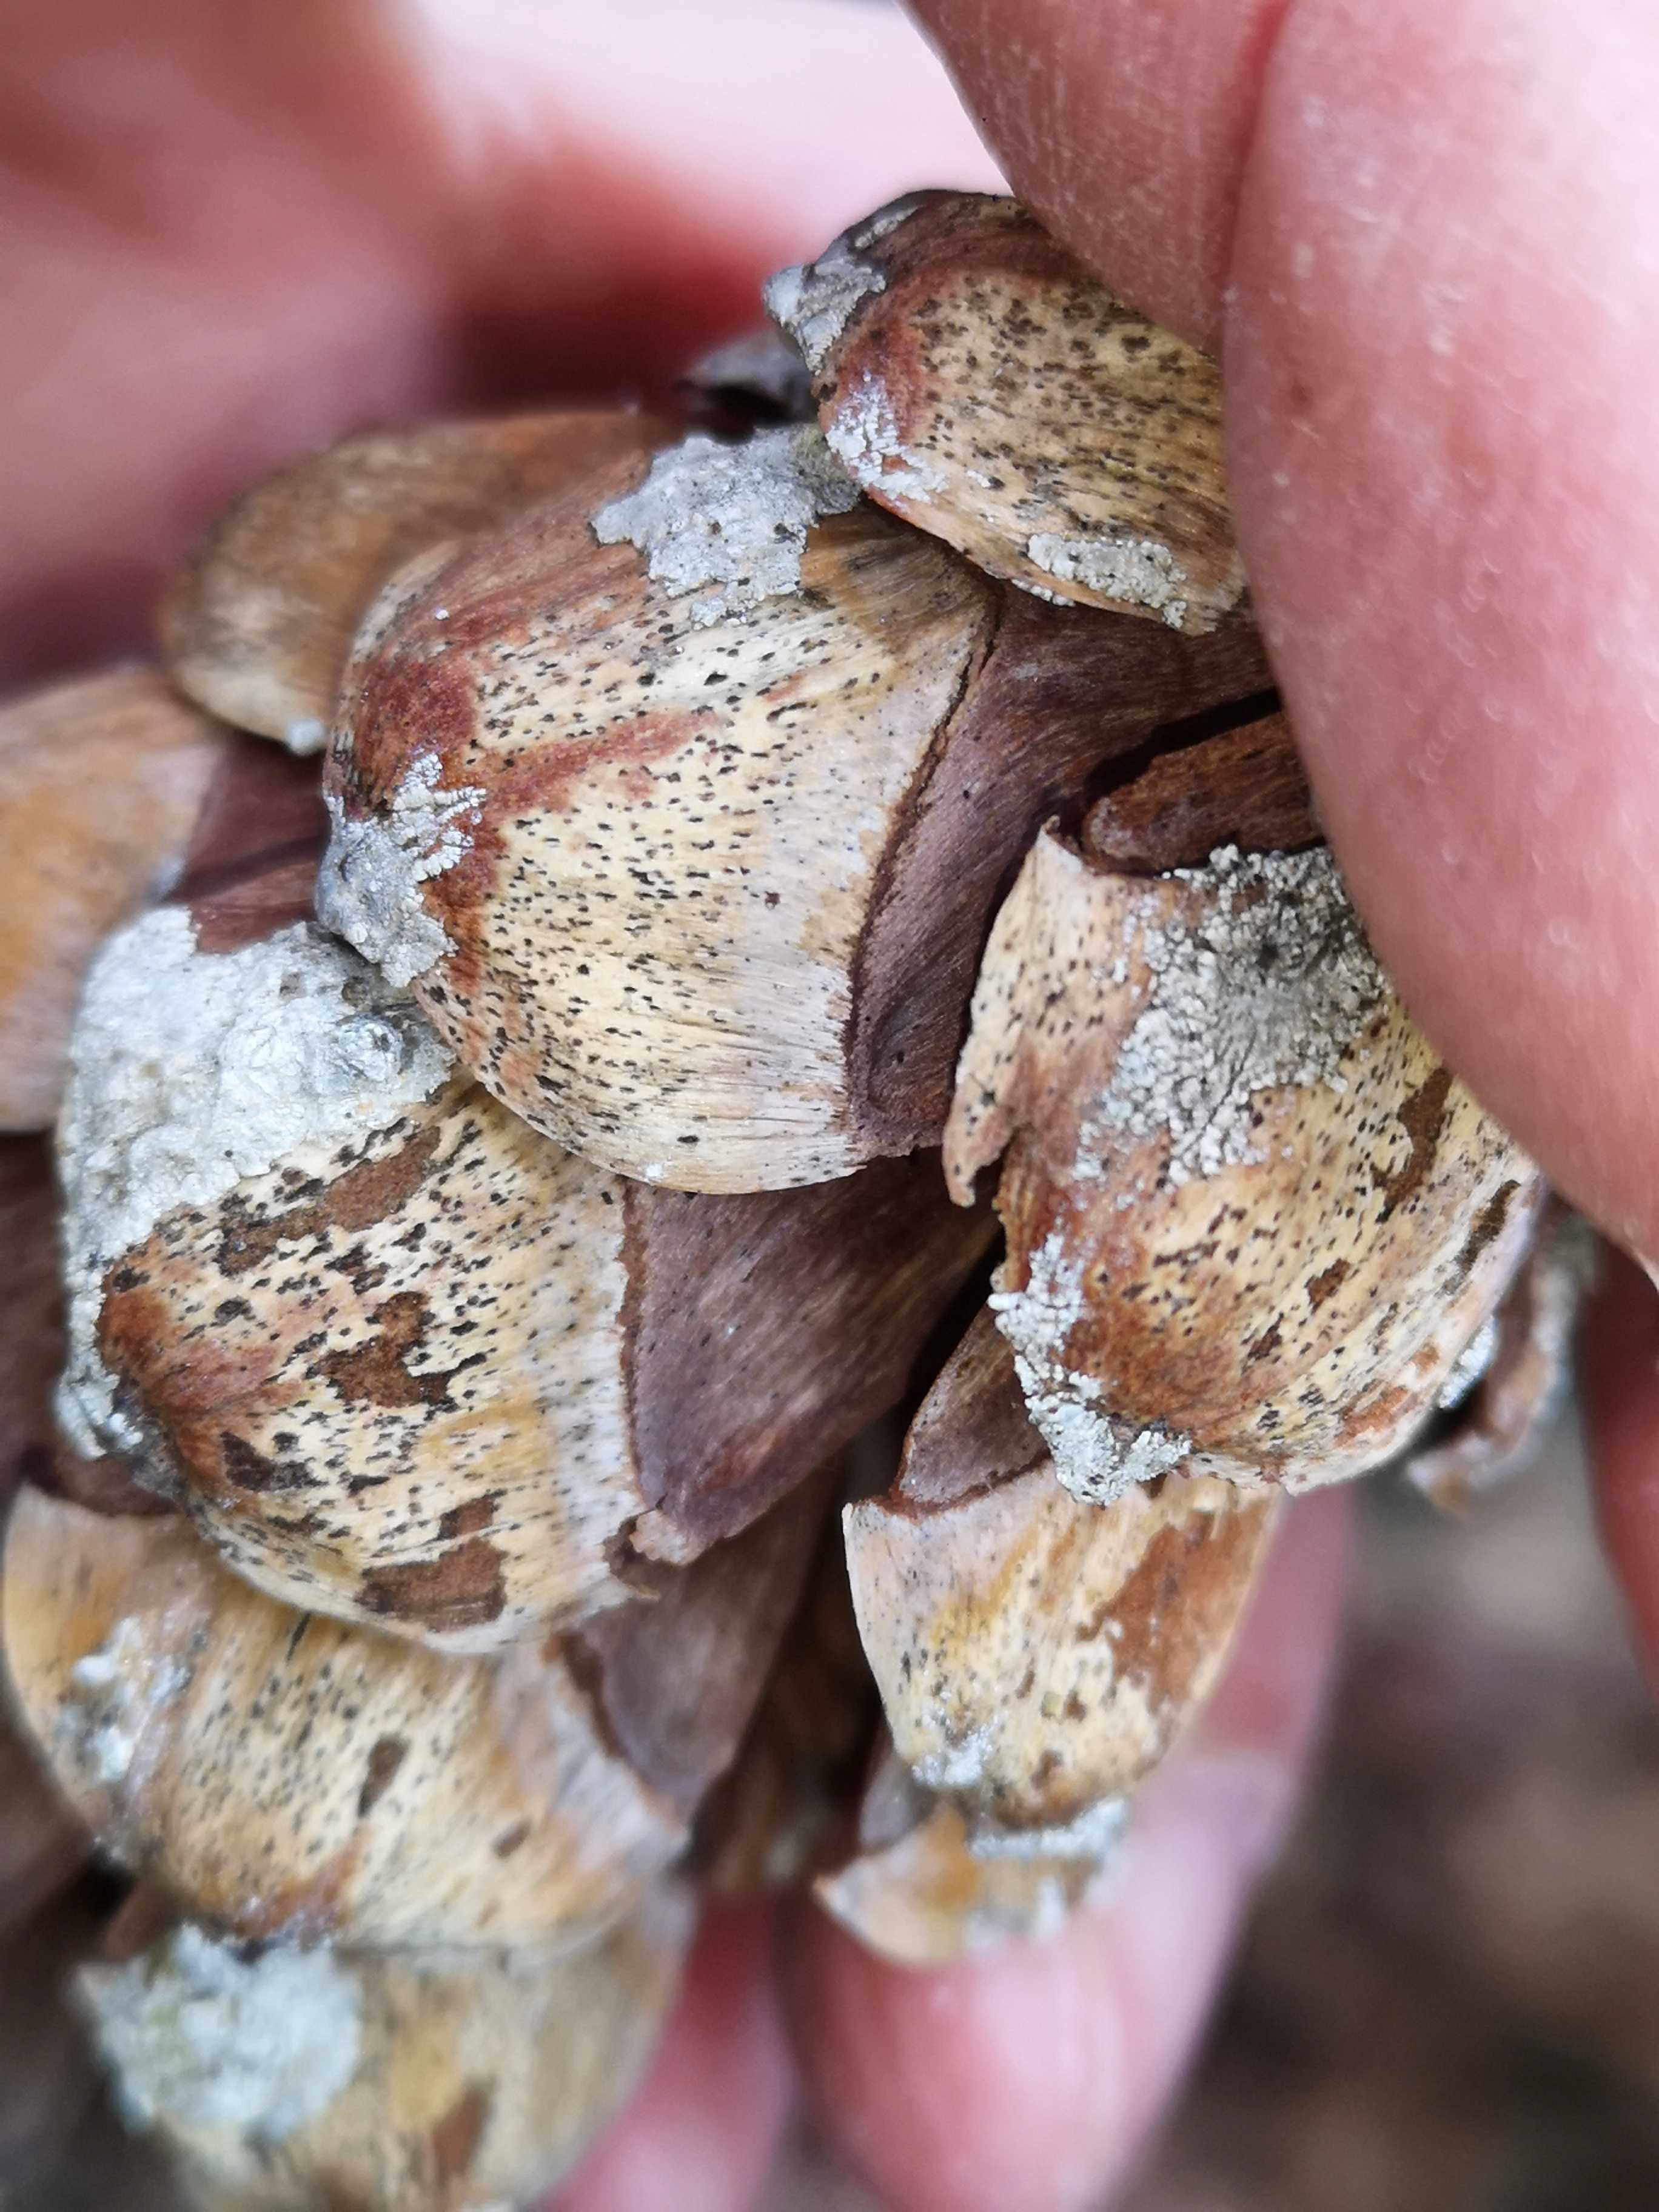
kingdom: Fungi
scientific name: Fungi
